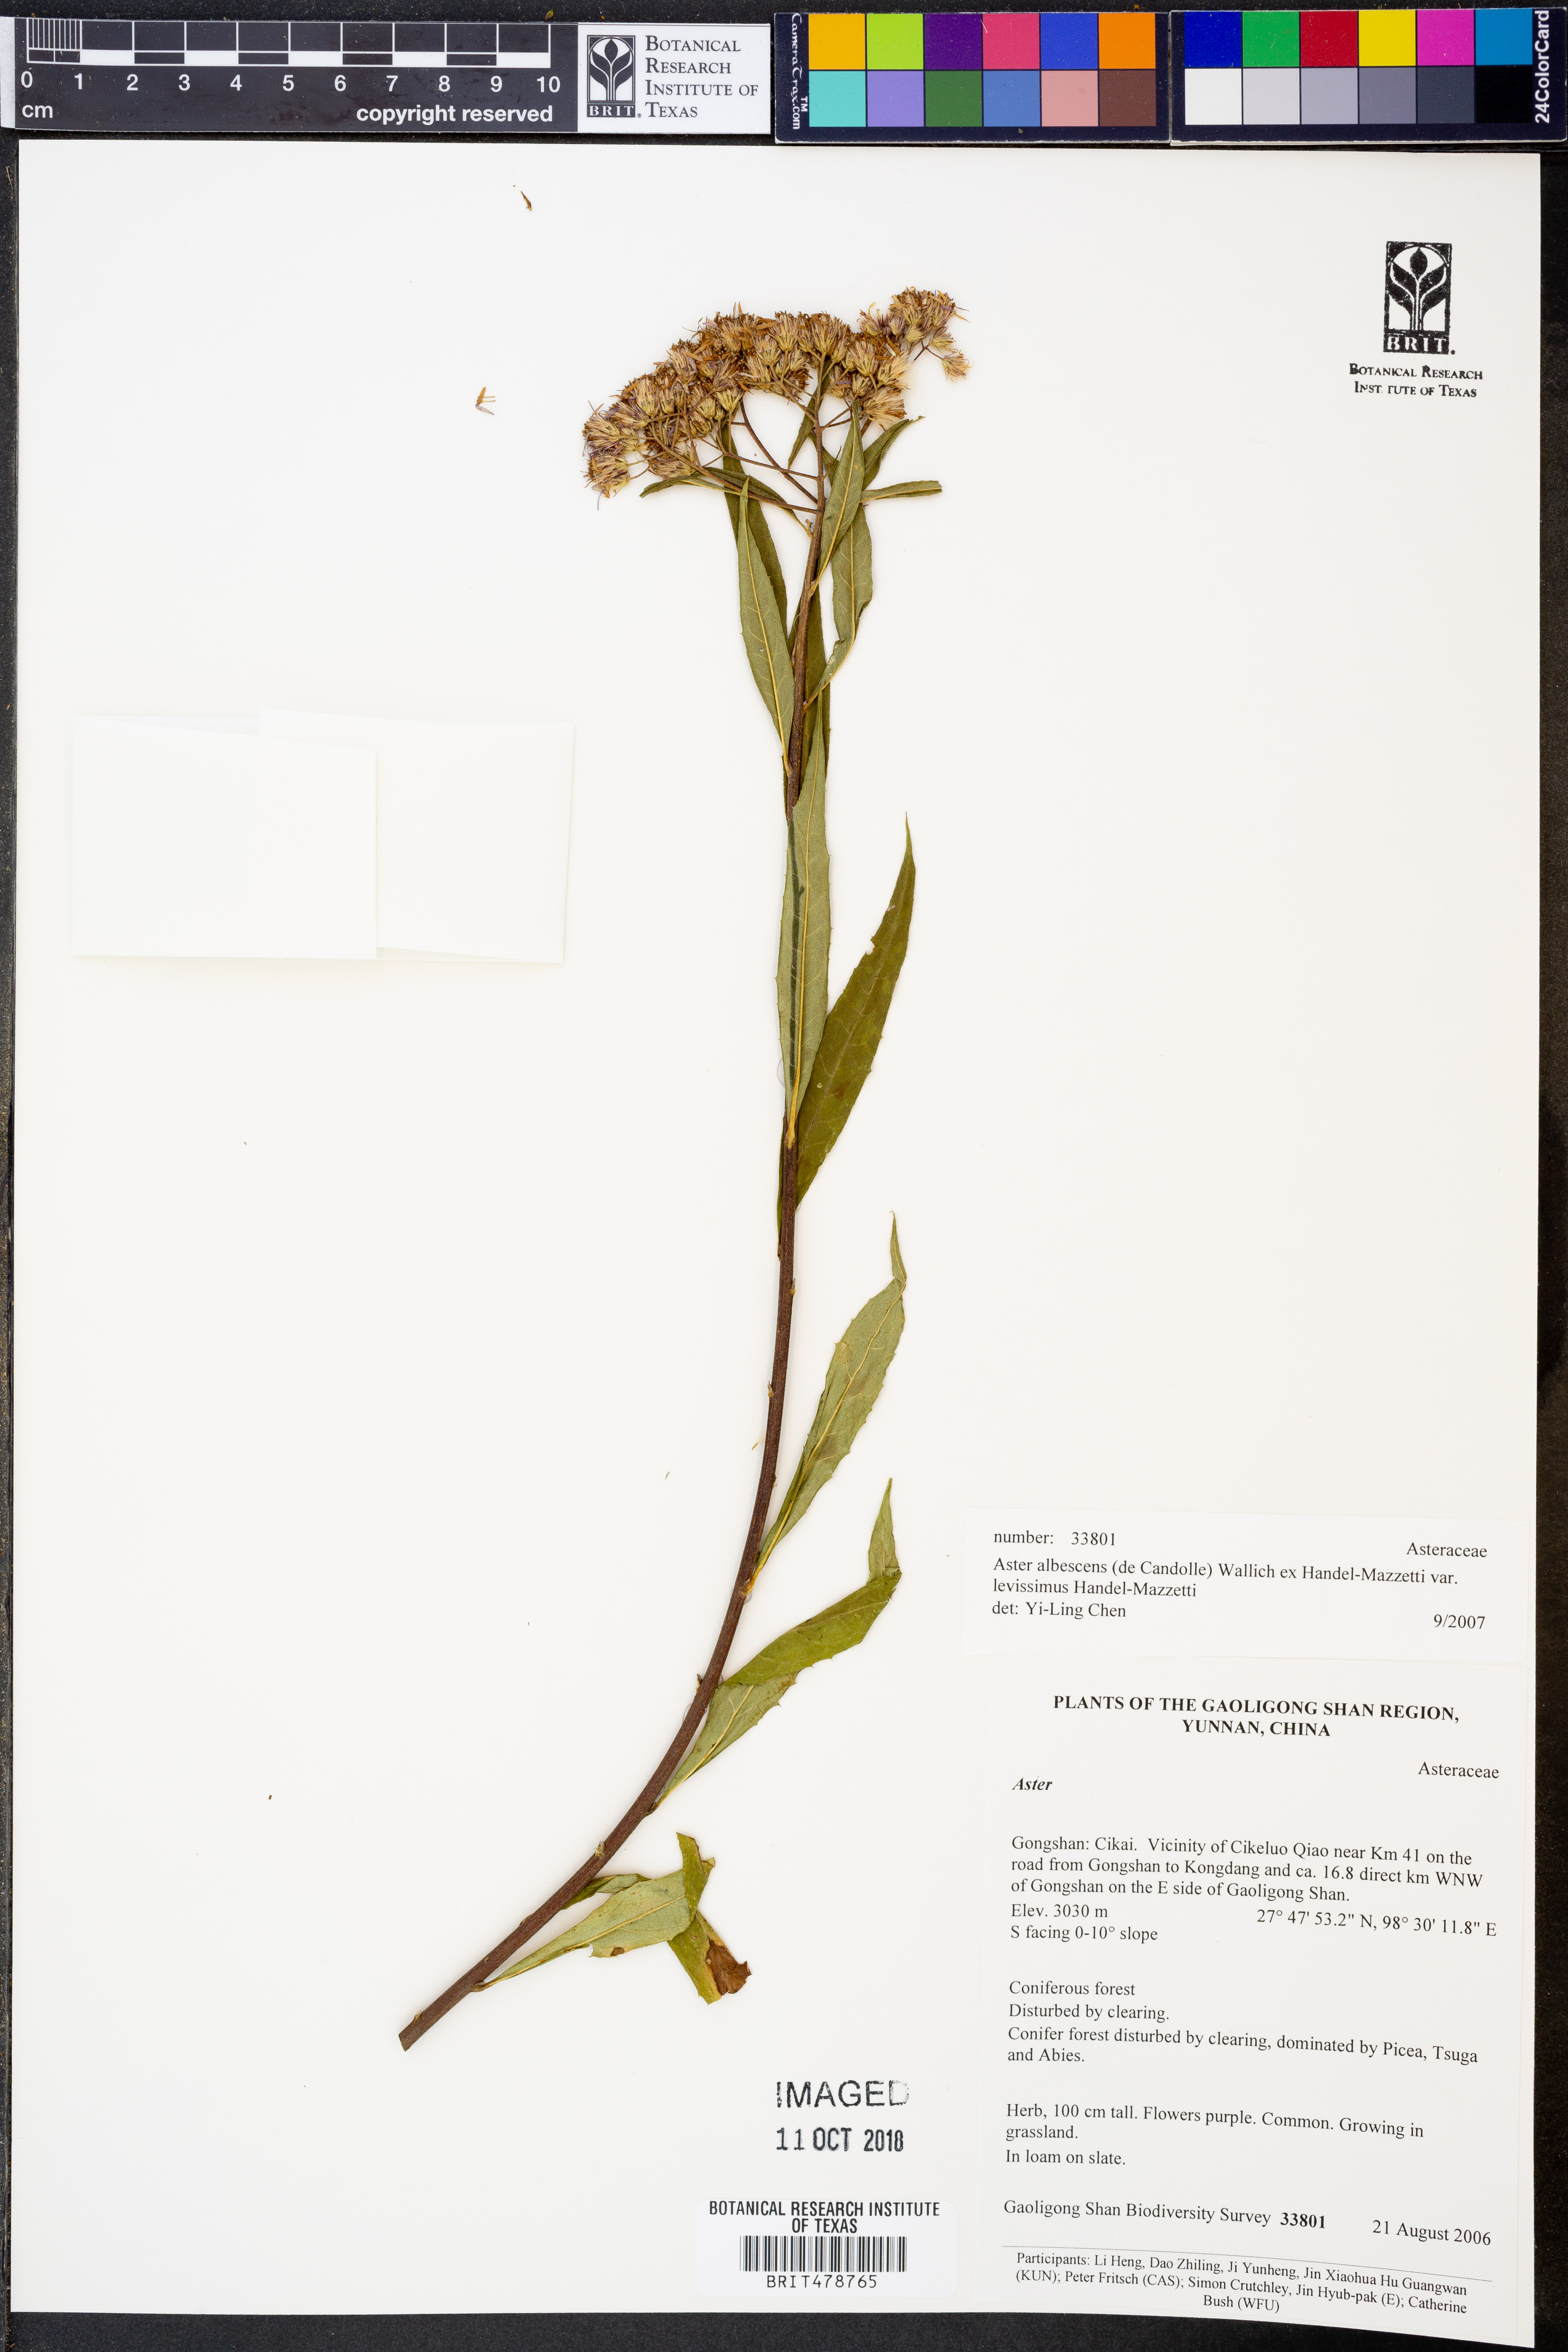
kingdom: Plantae
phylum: Tracheophyta
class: Magnoliopsida
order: Asterales
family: Asteraceae
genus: Sinosidus
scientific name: Sinosidus albescens
